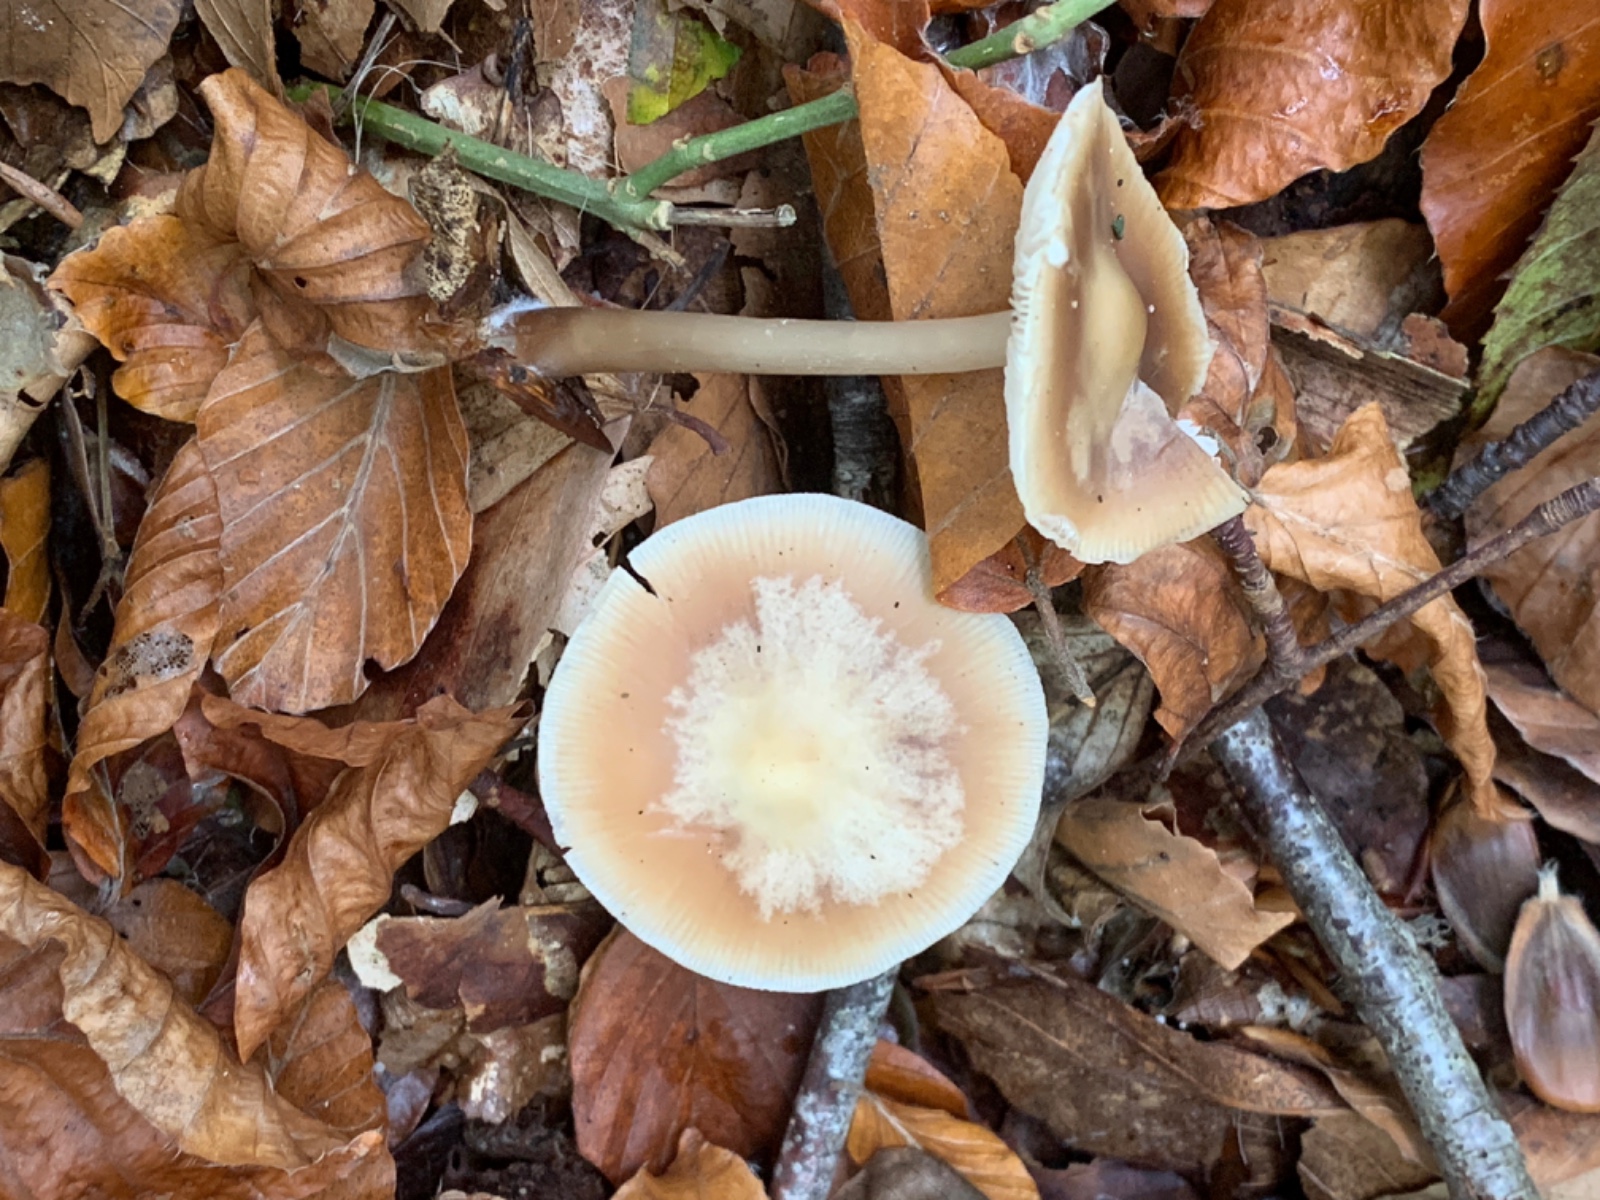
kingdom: Fungi
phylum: Basidiomycota
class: Agaricomycetes
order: Agaricales
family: Mycenaceae
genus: Mycena
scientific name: Mycena rosea
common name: rosa huesvamp
